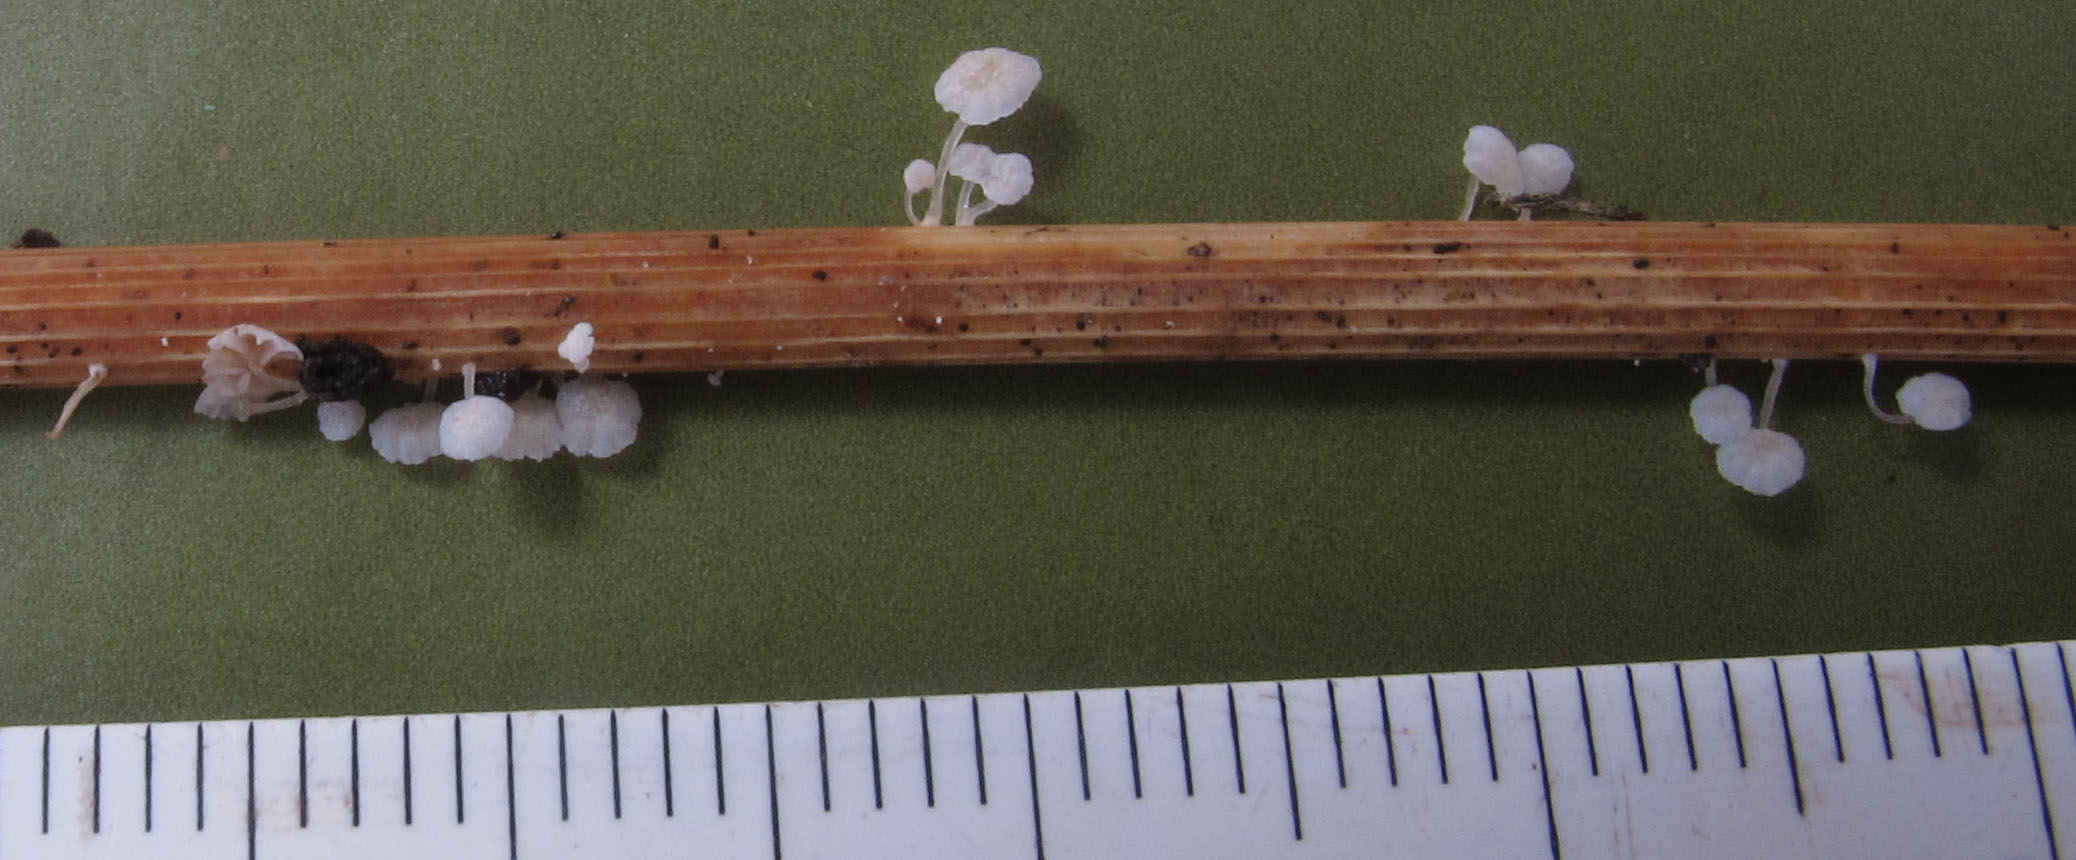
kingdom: Fungi
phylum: Basidiomycota
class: Agaricomycetes
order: Agaricales
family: Mycenaceae
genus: Resinomycena
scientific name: Resinomycena saccharifera
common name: sukkerhat
